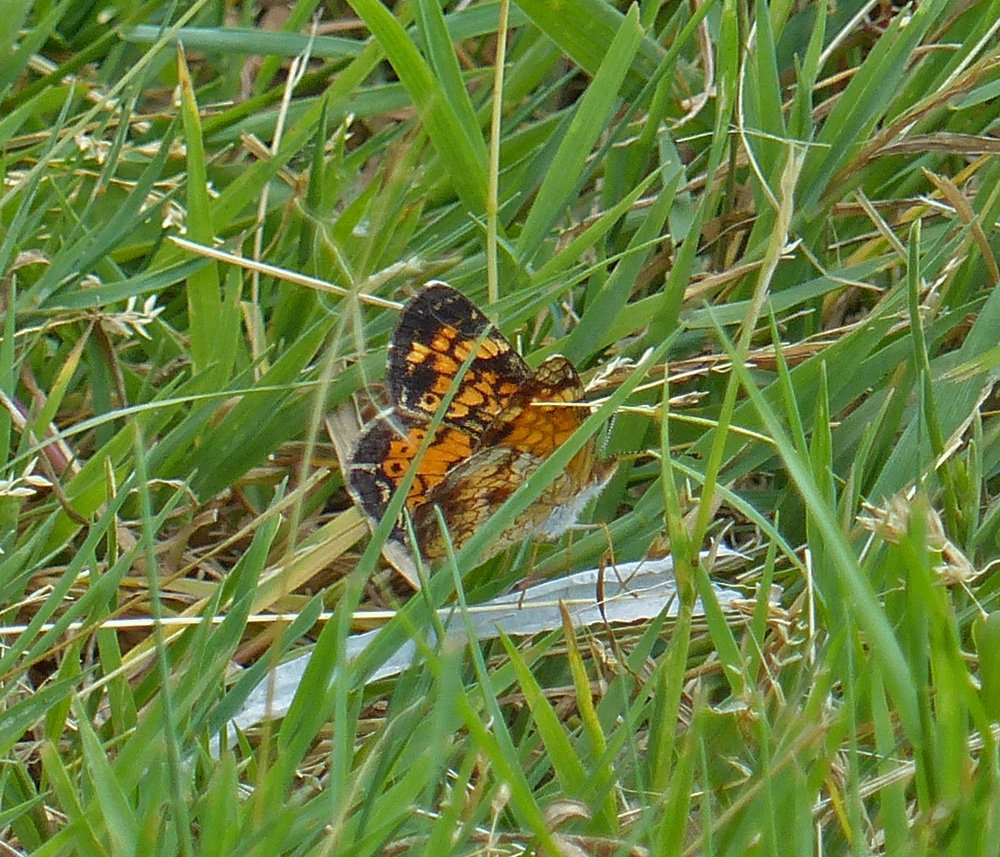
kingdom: Animalia
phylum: Arthropoda
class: Insecta
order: Lepidoptera
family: Nymphalidae
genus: Phyciodes
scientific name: Phyciodes tharos
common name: Pearl Crescent
